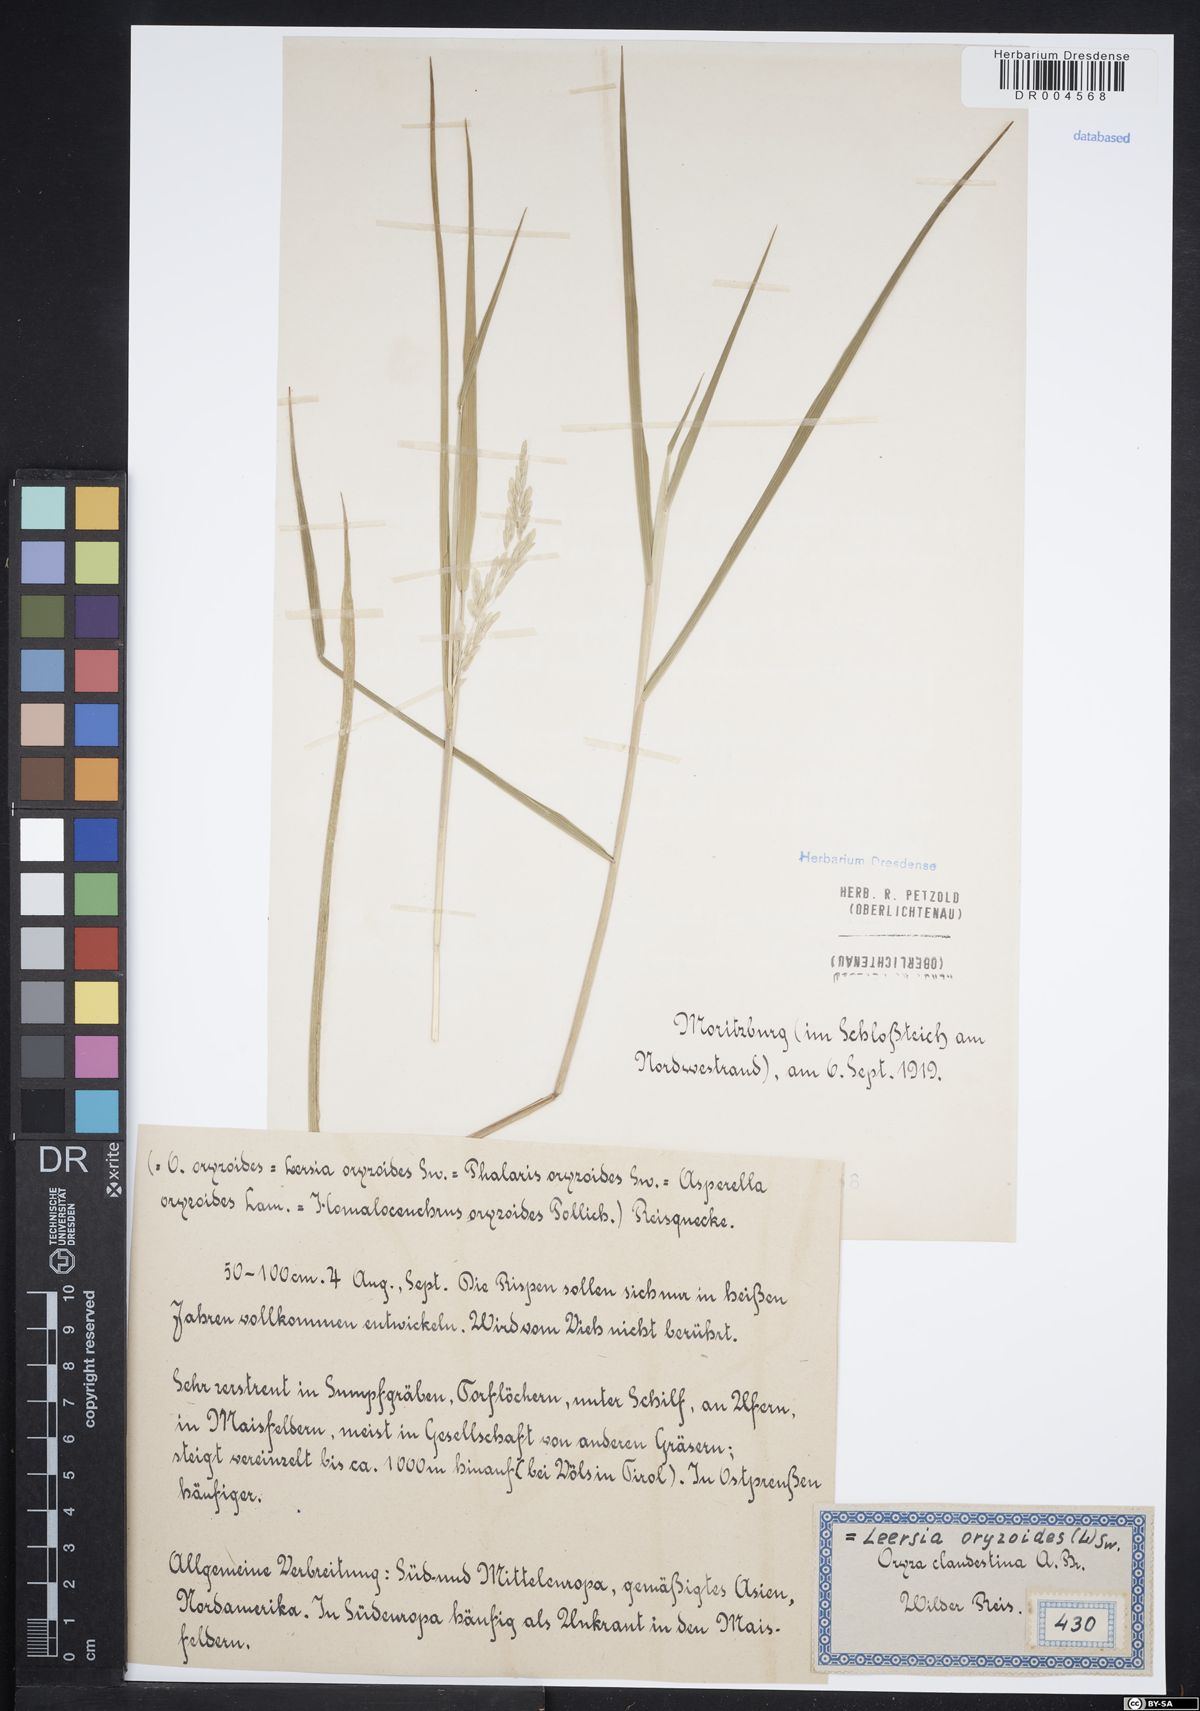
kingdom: Plantae
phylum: Tracheophyta
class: Liliopsida
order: Poales
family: Poaceae
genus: Leersia
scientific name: Leersia oryzoides
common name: Cut-grass
